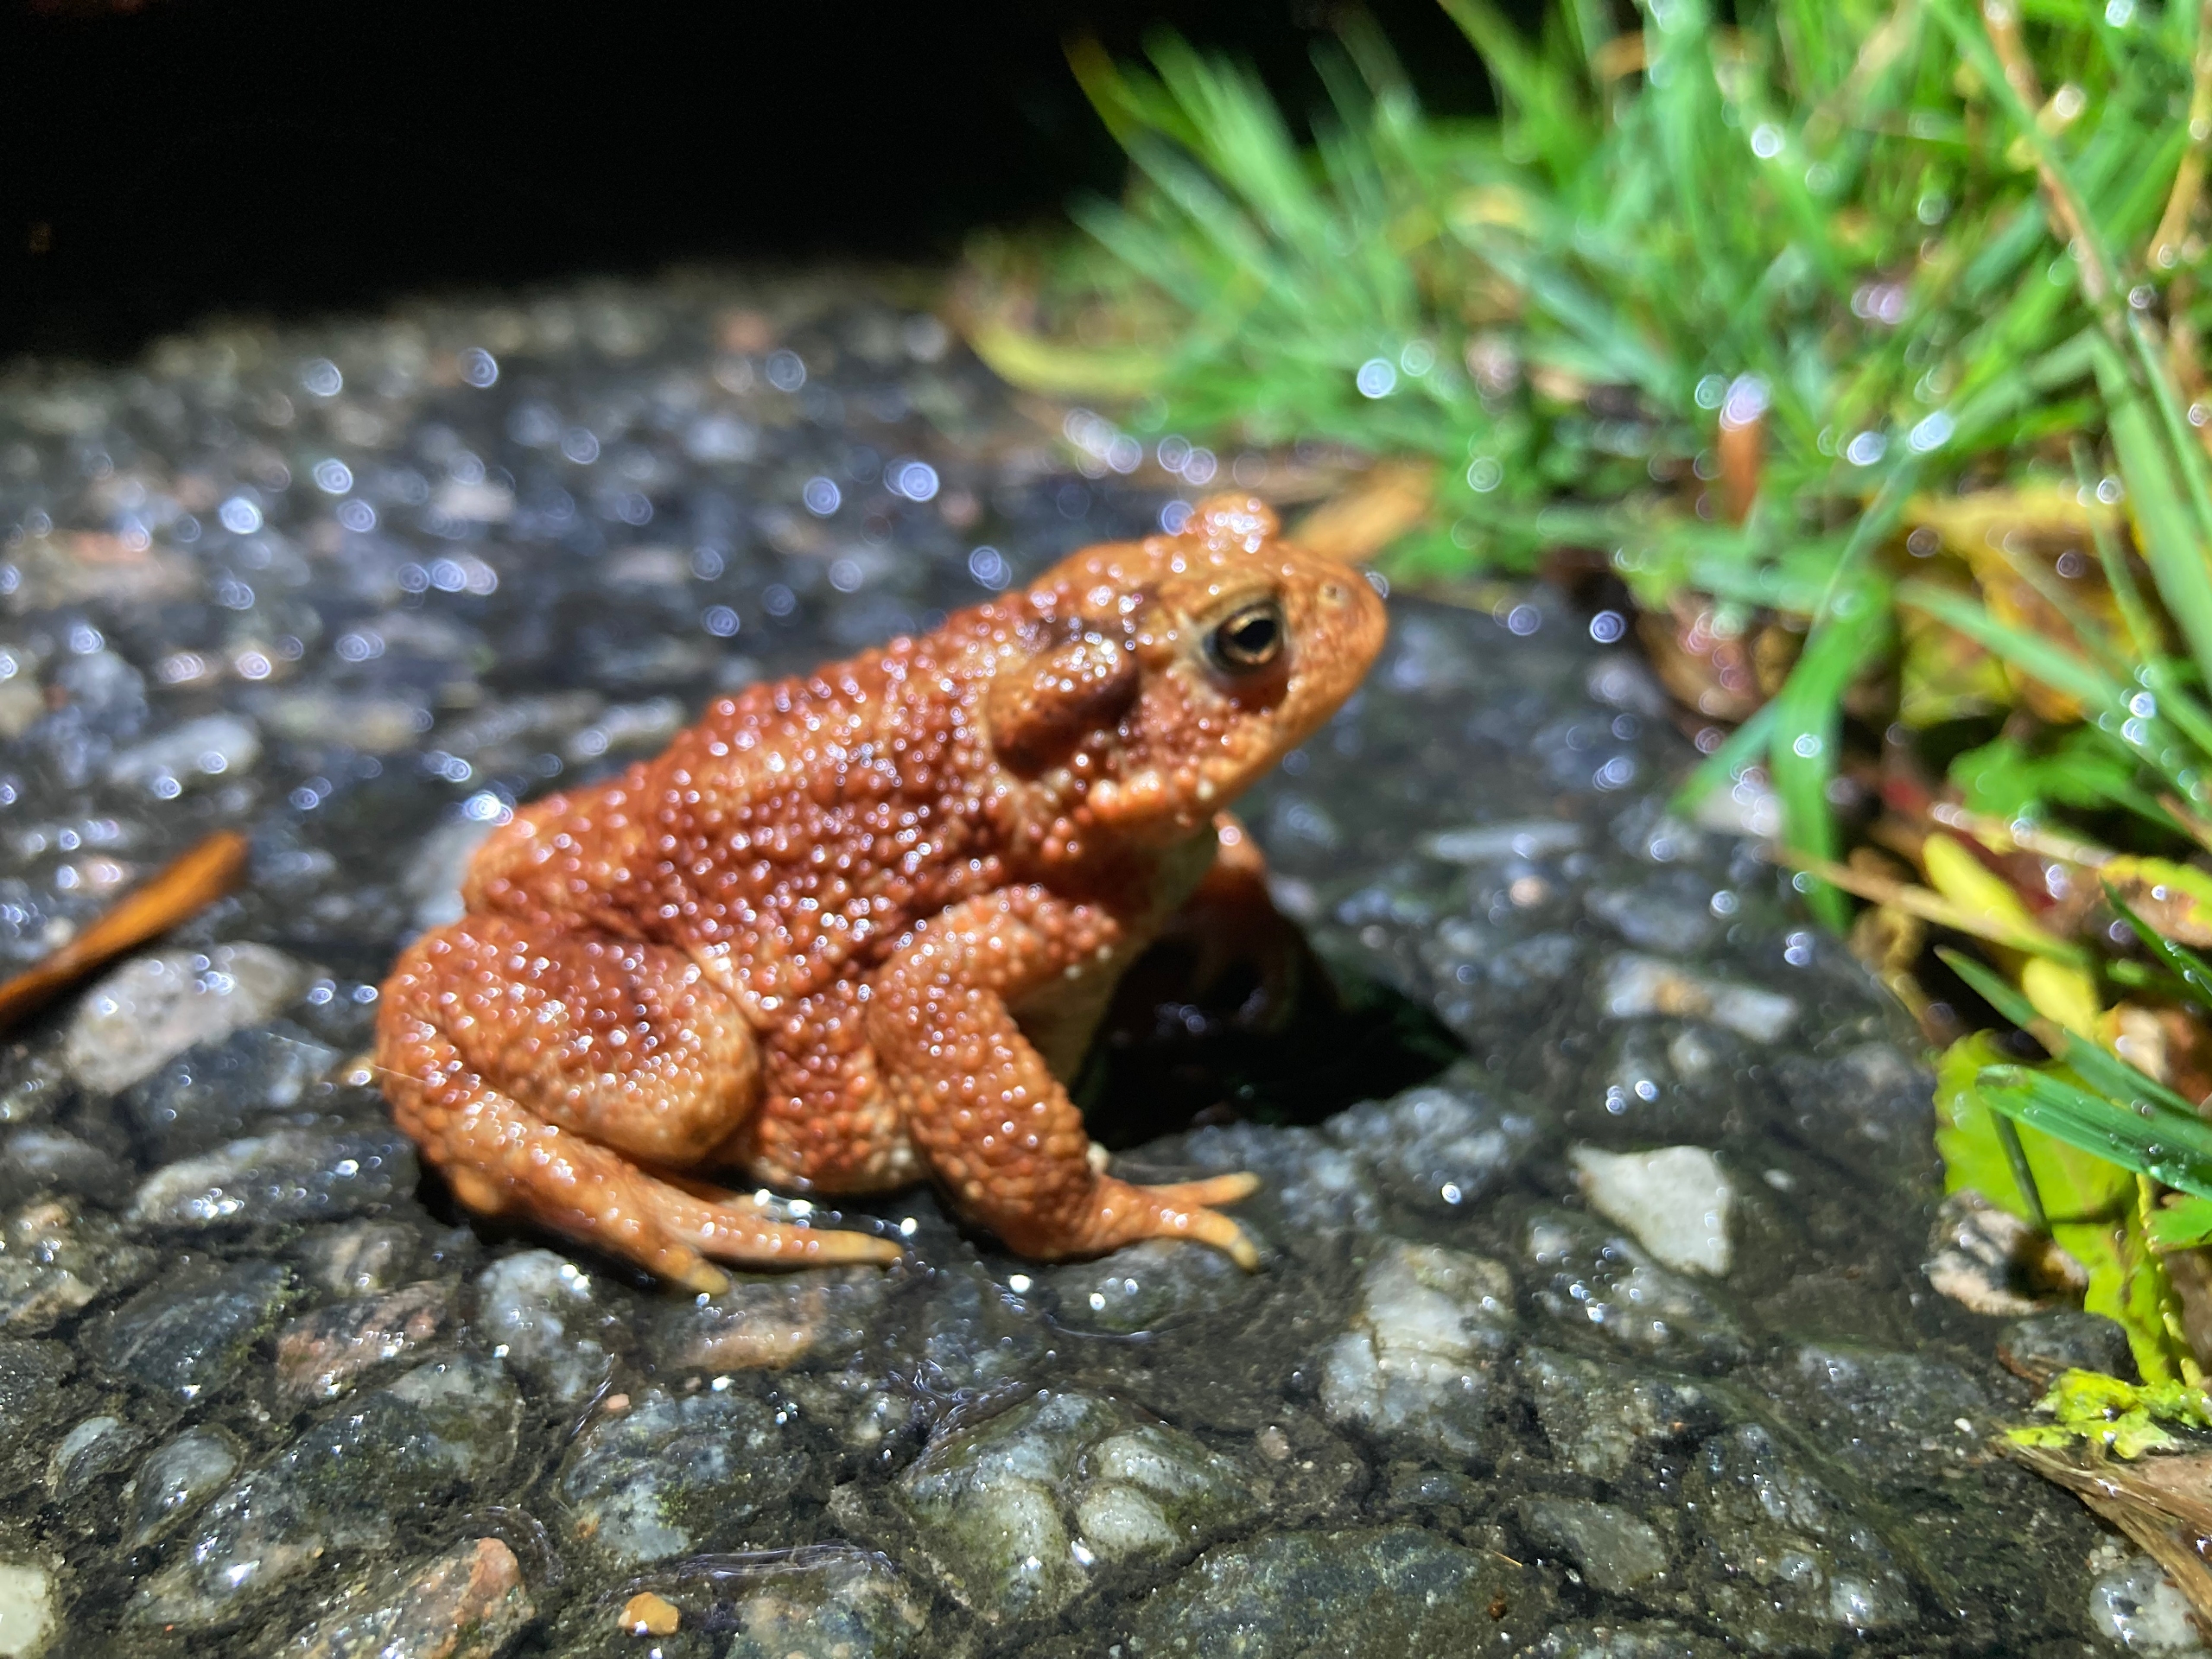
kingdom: Animalia
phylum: Chordata
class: Amphibia
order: Anura
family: Bufonidae
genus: Bufo
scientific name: Bufo bufo
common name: Skrubtudse
